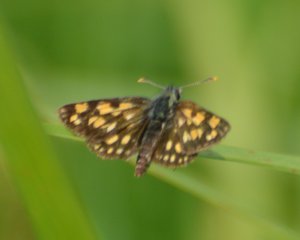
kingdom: Animalia
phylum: Arthropoda
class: Insecta
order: Lepidoptera
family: Hesperiidae
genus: Carterocephalus
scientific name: Carterocephalus palaemon
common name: Chequered Skipper
